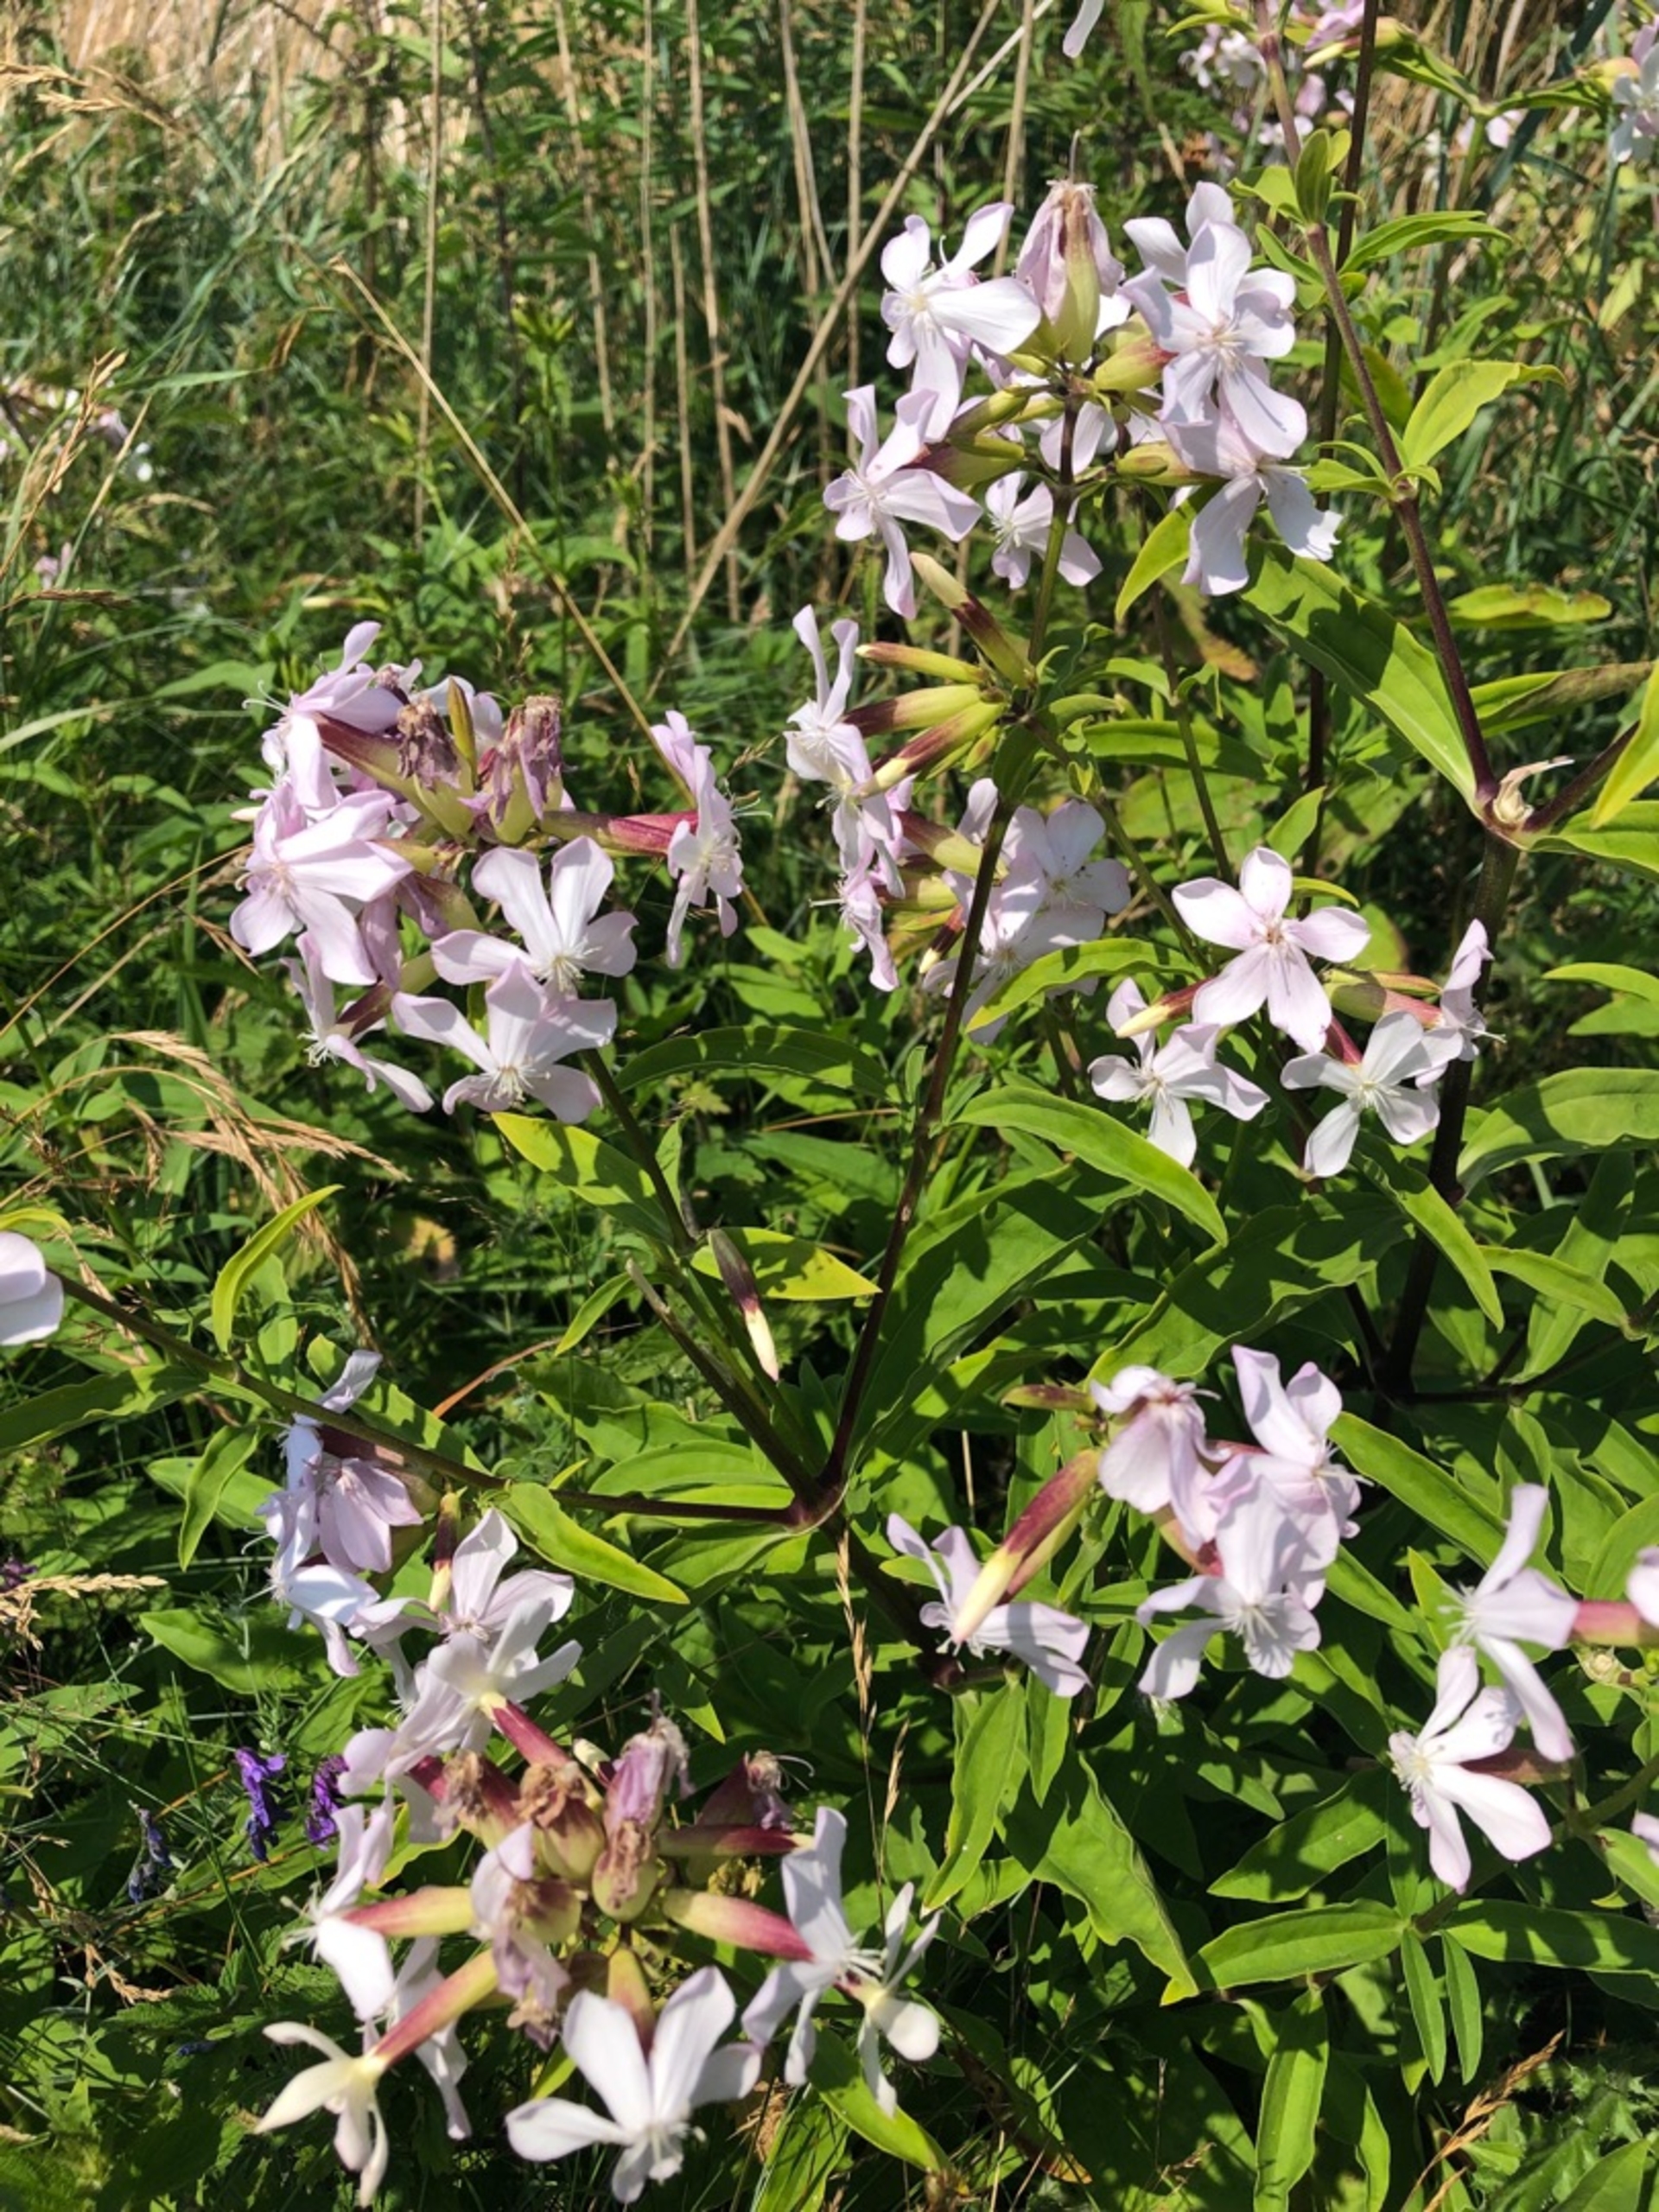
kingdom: Plantae
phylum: Tracheophyta
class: Magnoliopsida
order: Caryophyllales
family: Caryophyllaceae
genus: Saponaria
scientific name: Saponaria officinalis
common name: Sæbeurt
